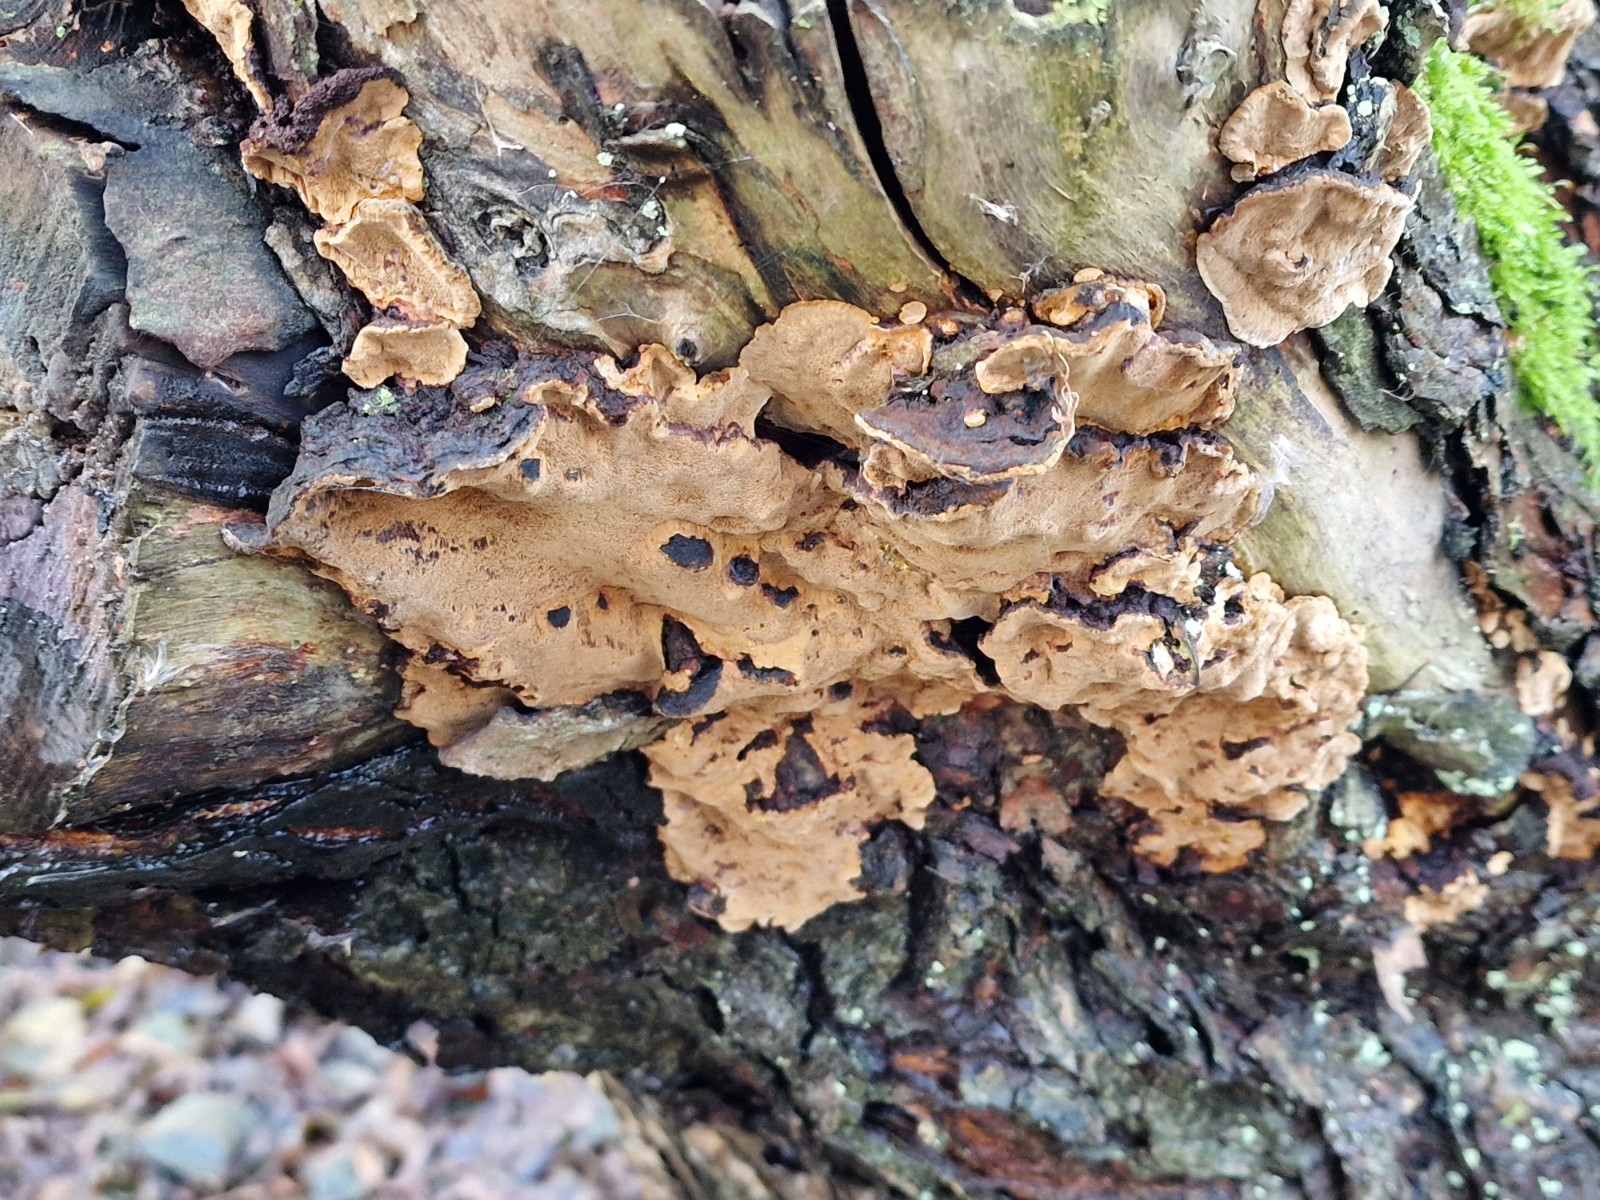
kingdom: Fungi
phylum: Basidiomycota
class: Agaricomycetes
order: Hymenochaetales
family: Hymenochaetaceae
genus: Phellinopsis
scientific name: Phellinopsis conchata
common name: pile-ildporesvamp
